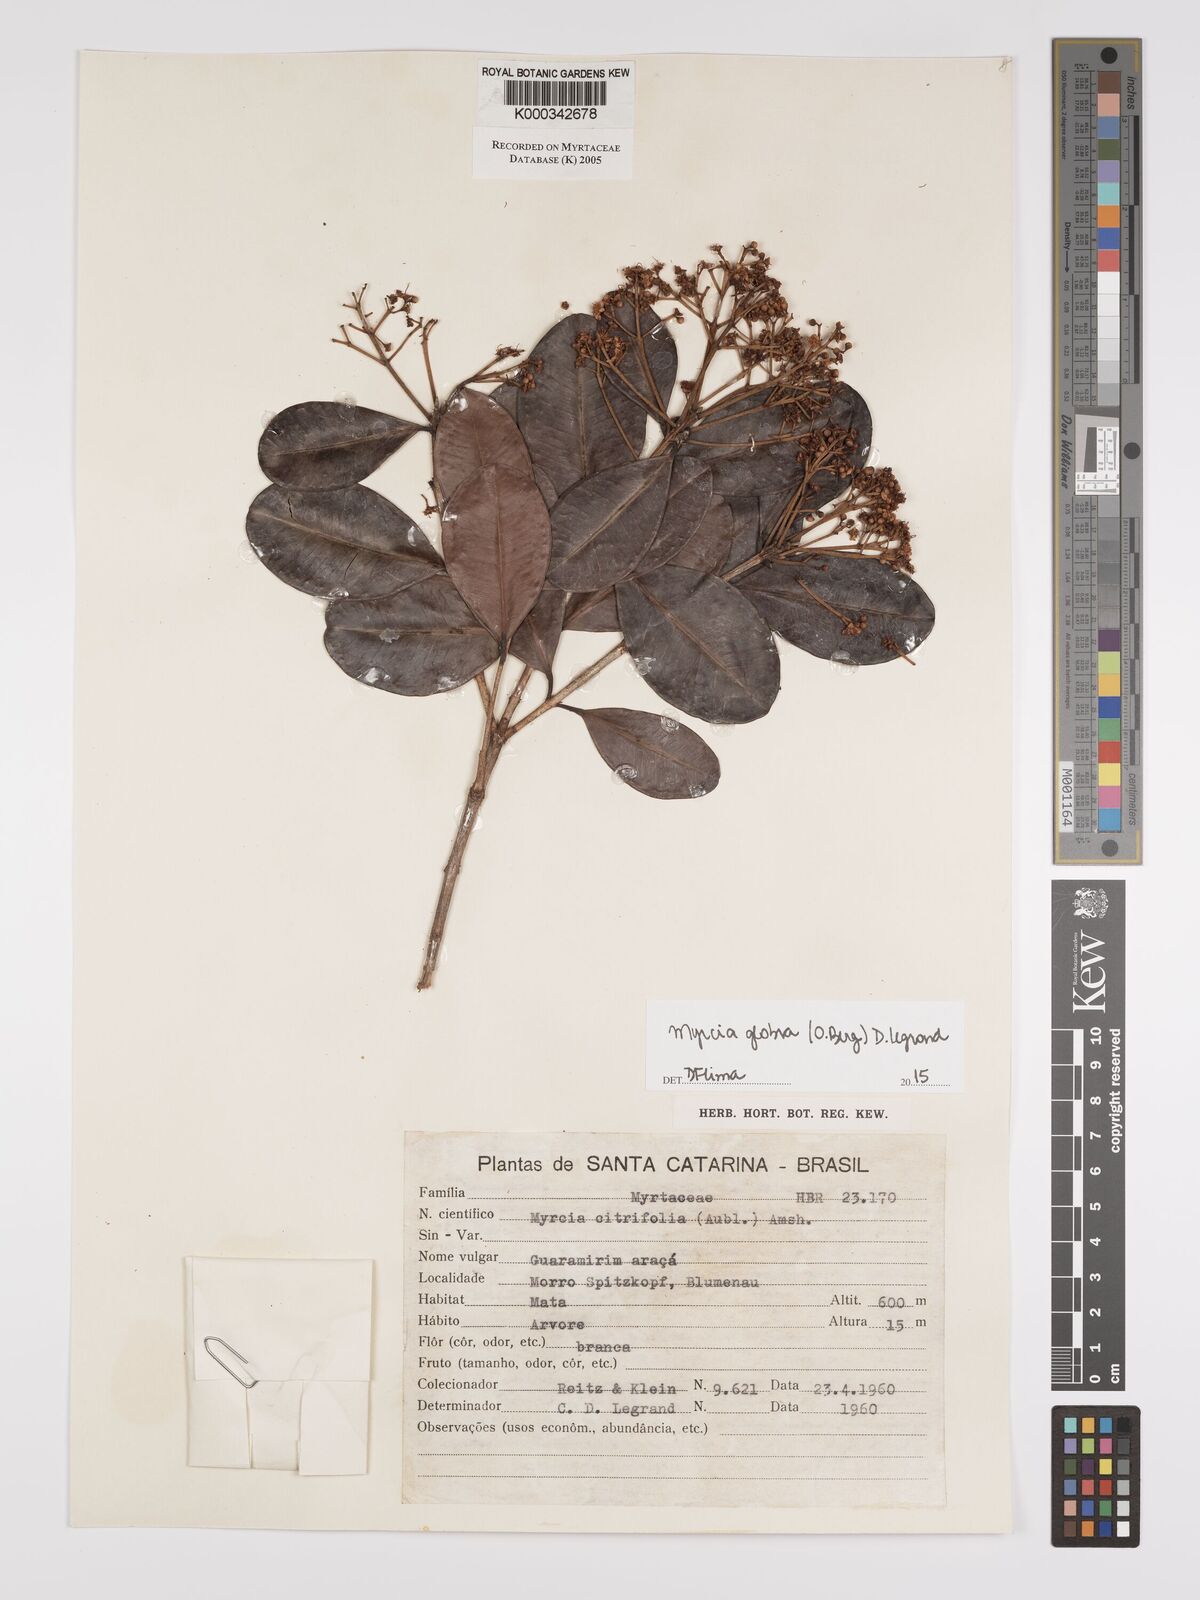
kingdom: Plantae
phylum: Tracheophyta
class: Magnoliopsida
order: Myrtales
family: Myrtaceae
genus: Myrcia
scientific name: Myrcia guianensis
